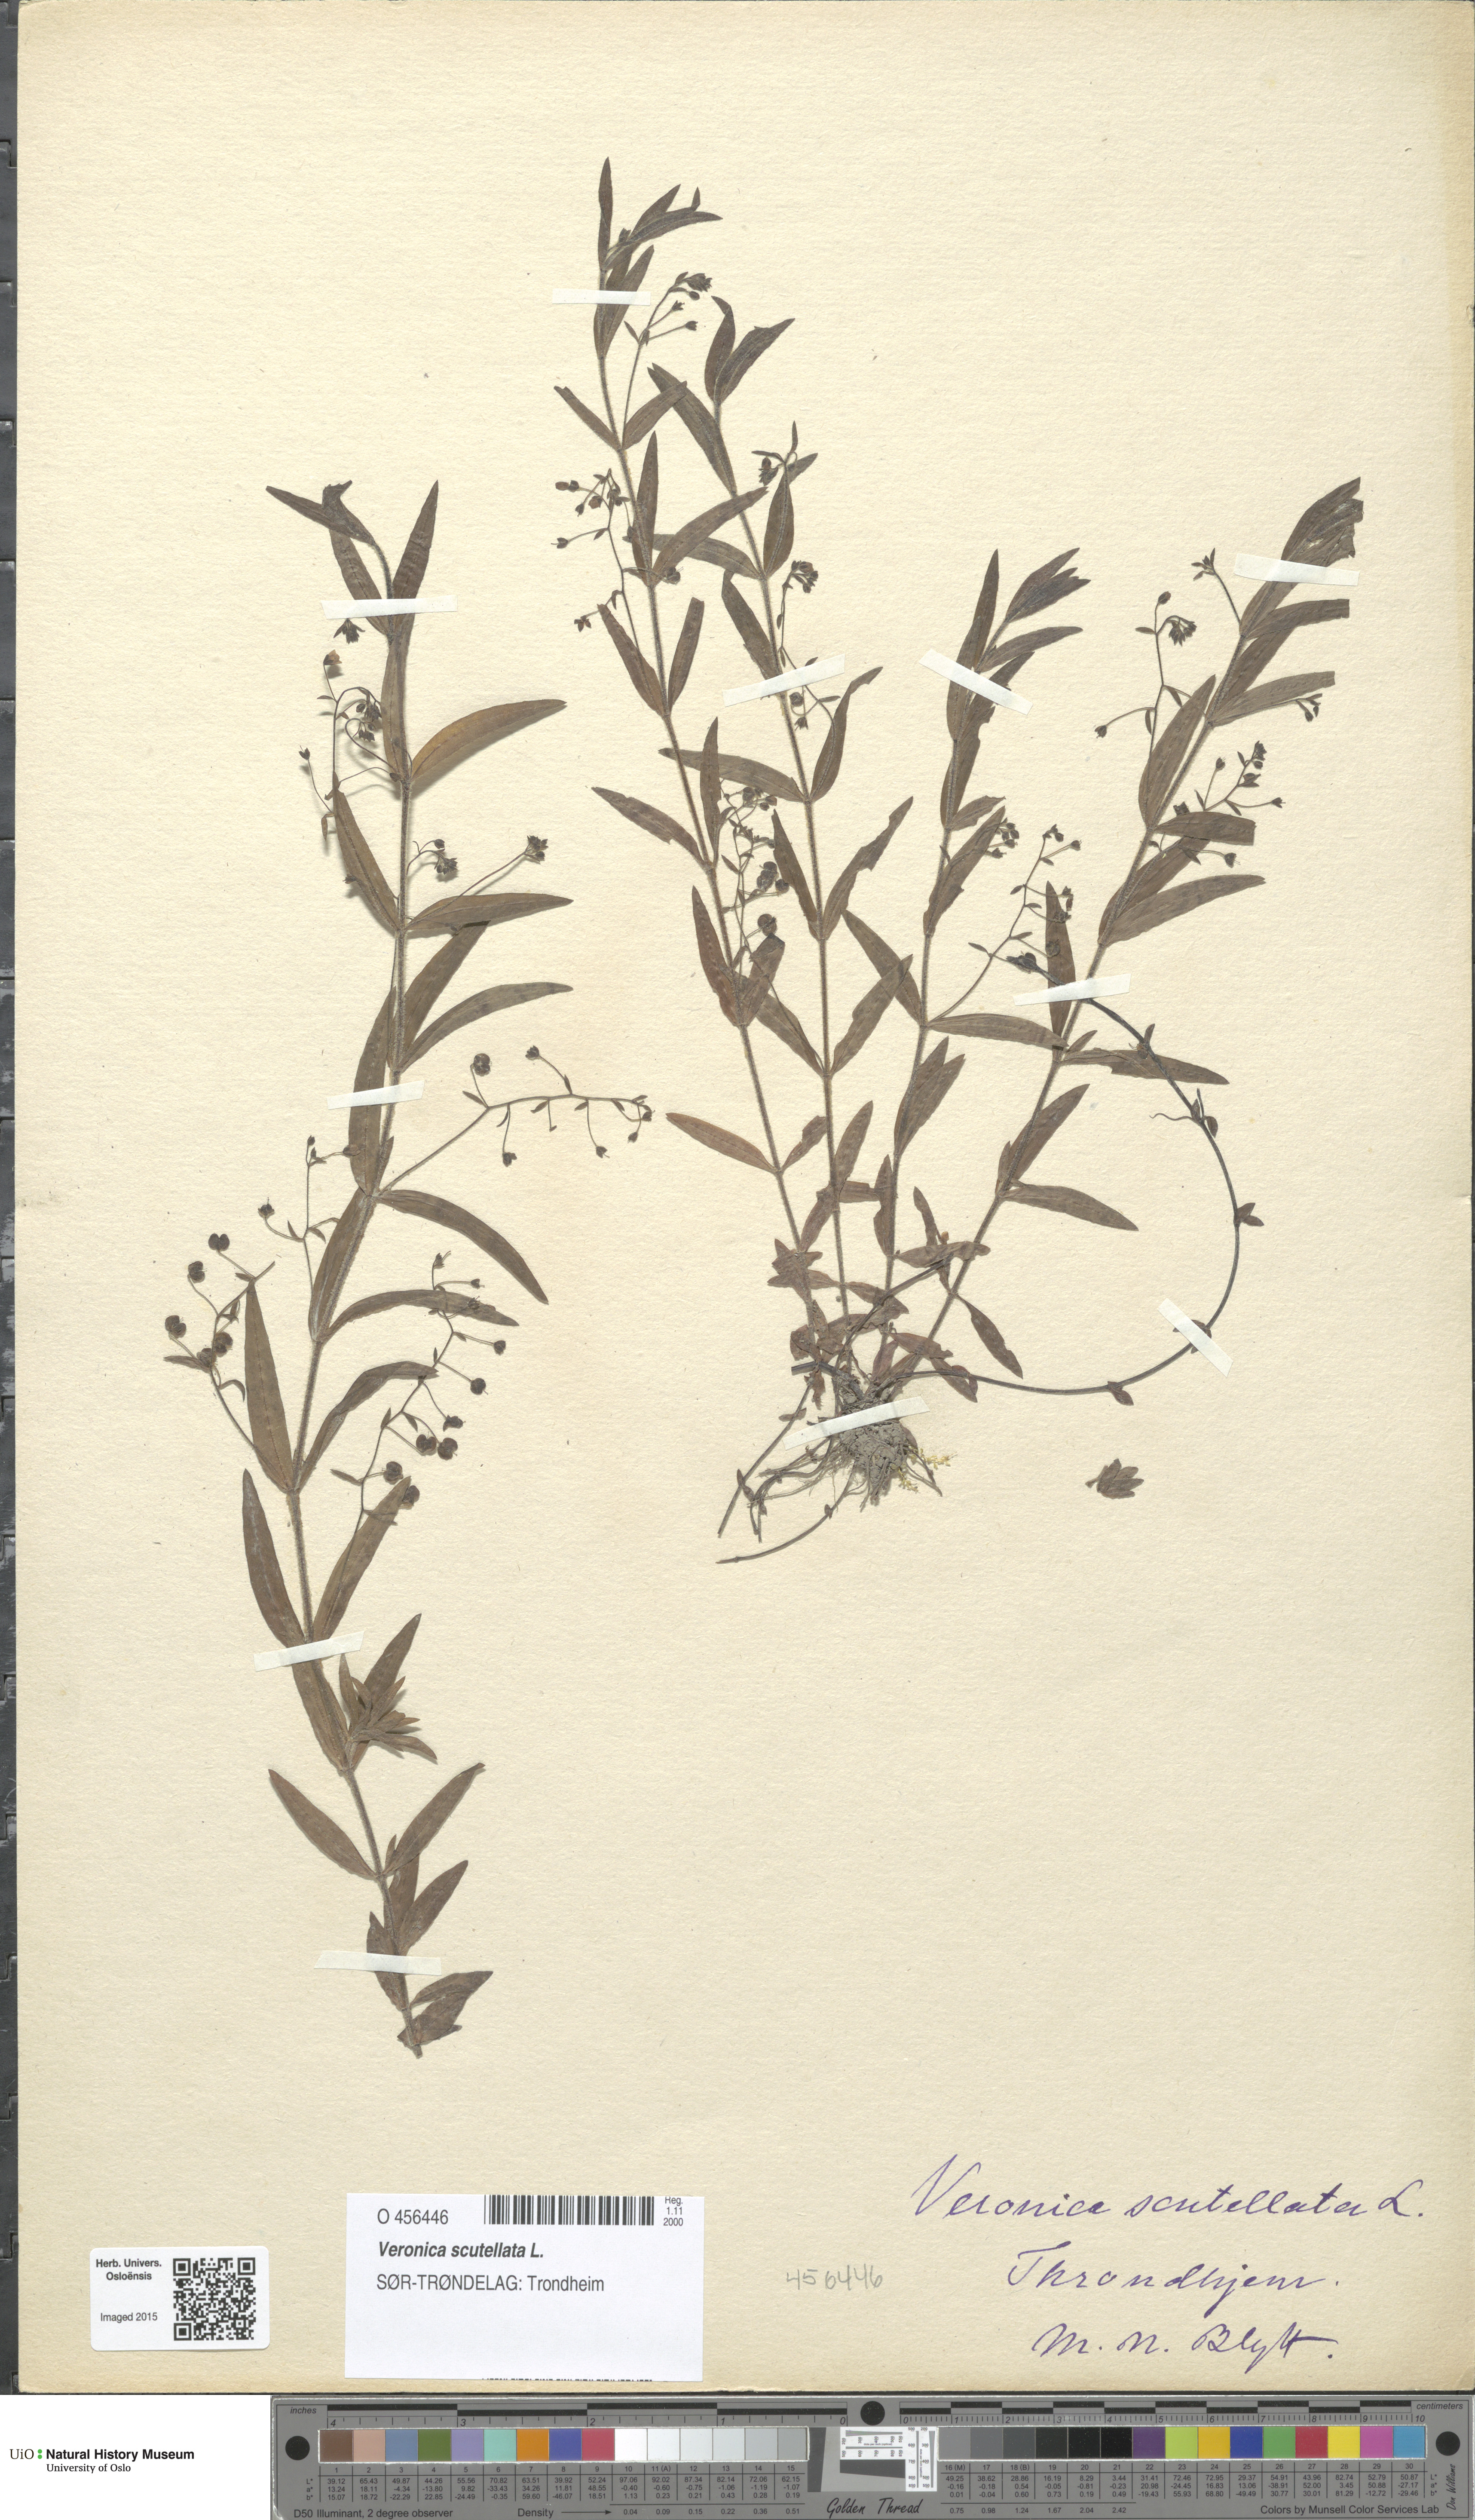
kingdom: Plantae
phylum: Tracheophyta
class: Magnoliopsida
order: Lamiales
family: Plantaginaceae
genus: Veronica
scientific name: Veronica scutellata
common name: Marsh speedwell
